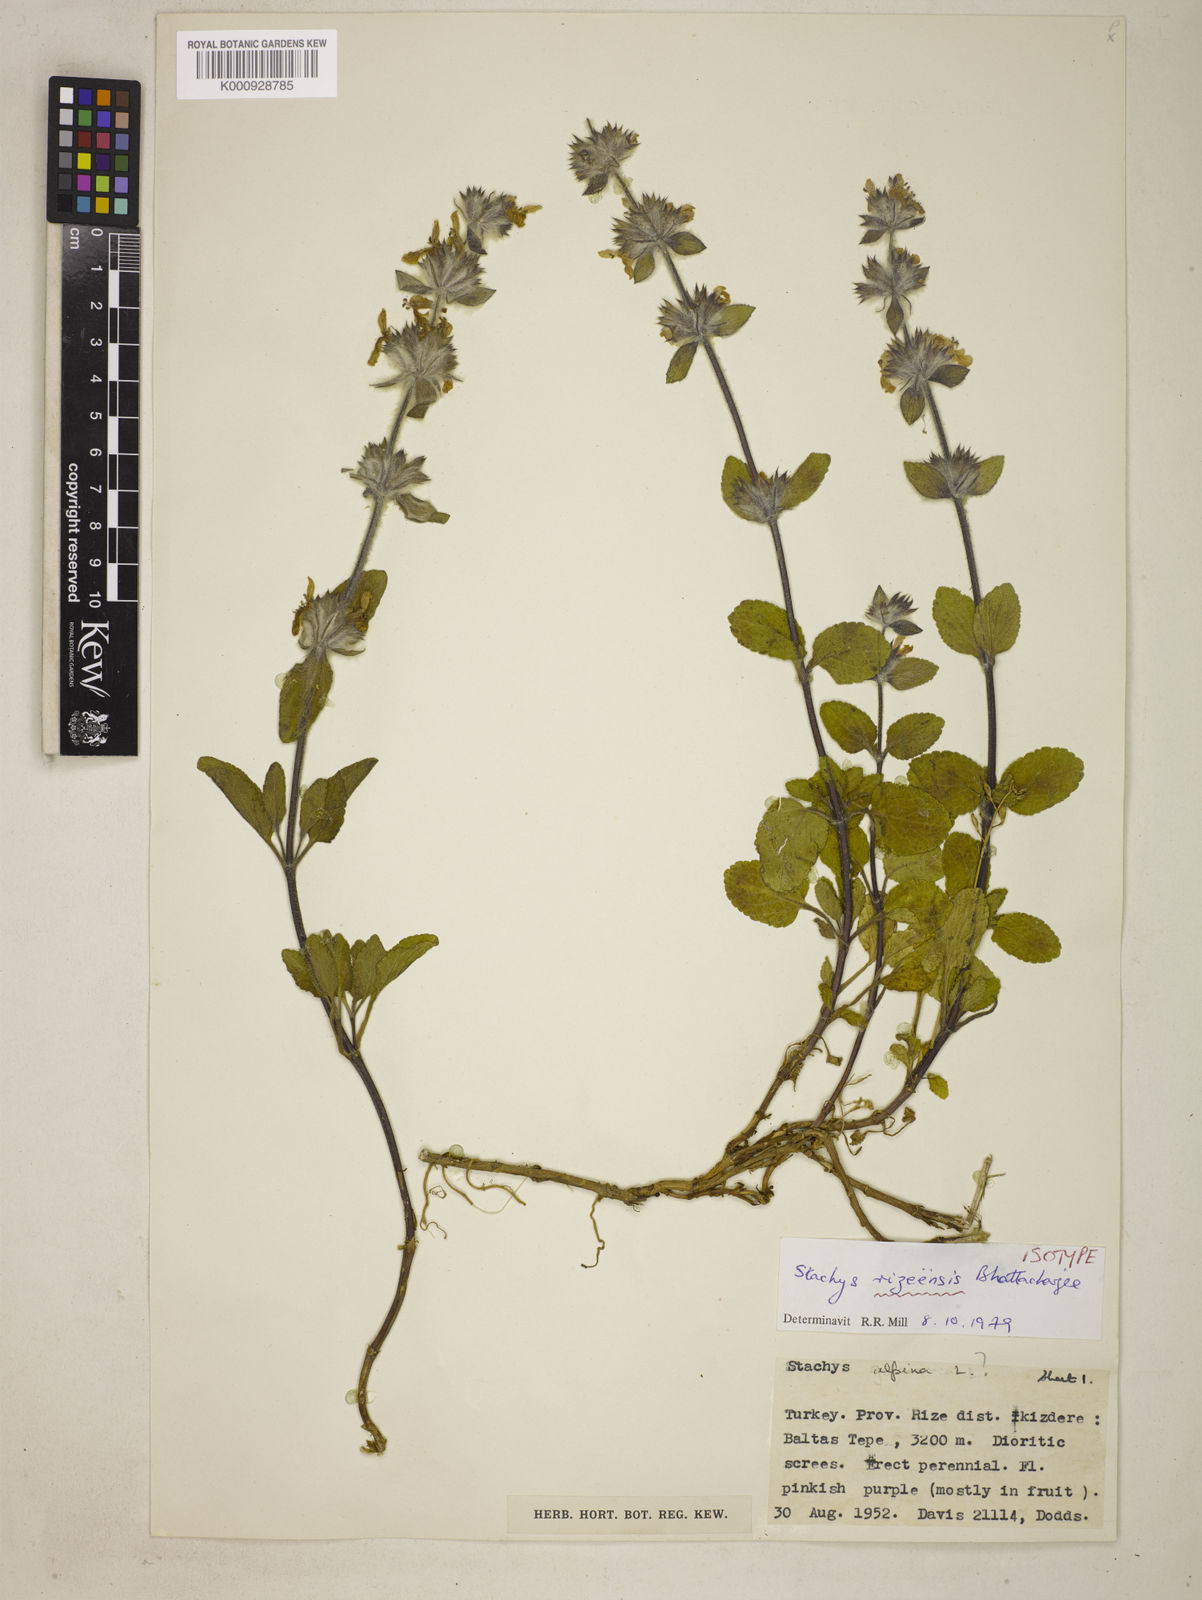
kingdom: Plantae
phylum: Tracheophyta
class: Magnoliopsida
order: Lamiales
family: Lamiaceae
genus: Stachys
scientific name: Stachys rizeensis
